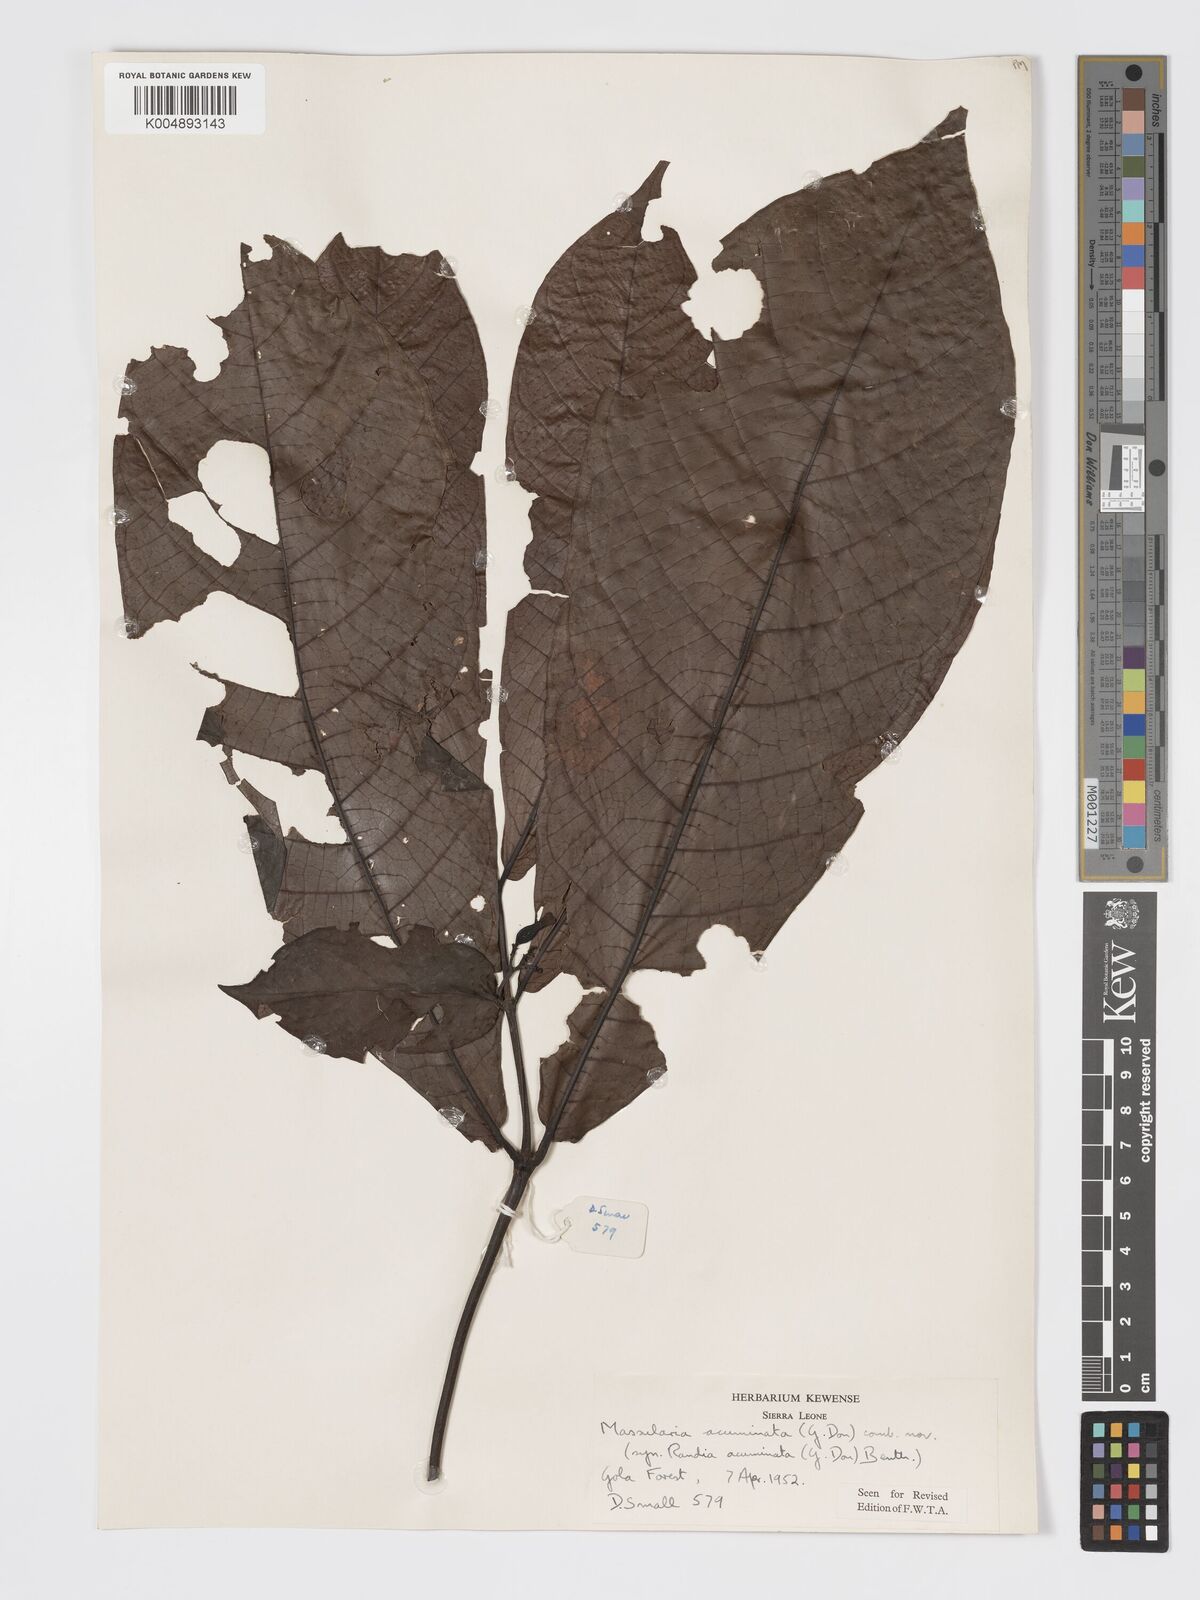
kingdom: Plantae
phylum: Tracheophyta
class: Magnoliopsida
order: Gentianales
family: Rubiaceae
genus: Massularia
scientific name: Massularia acuminata
